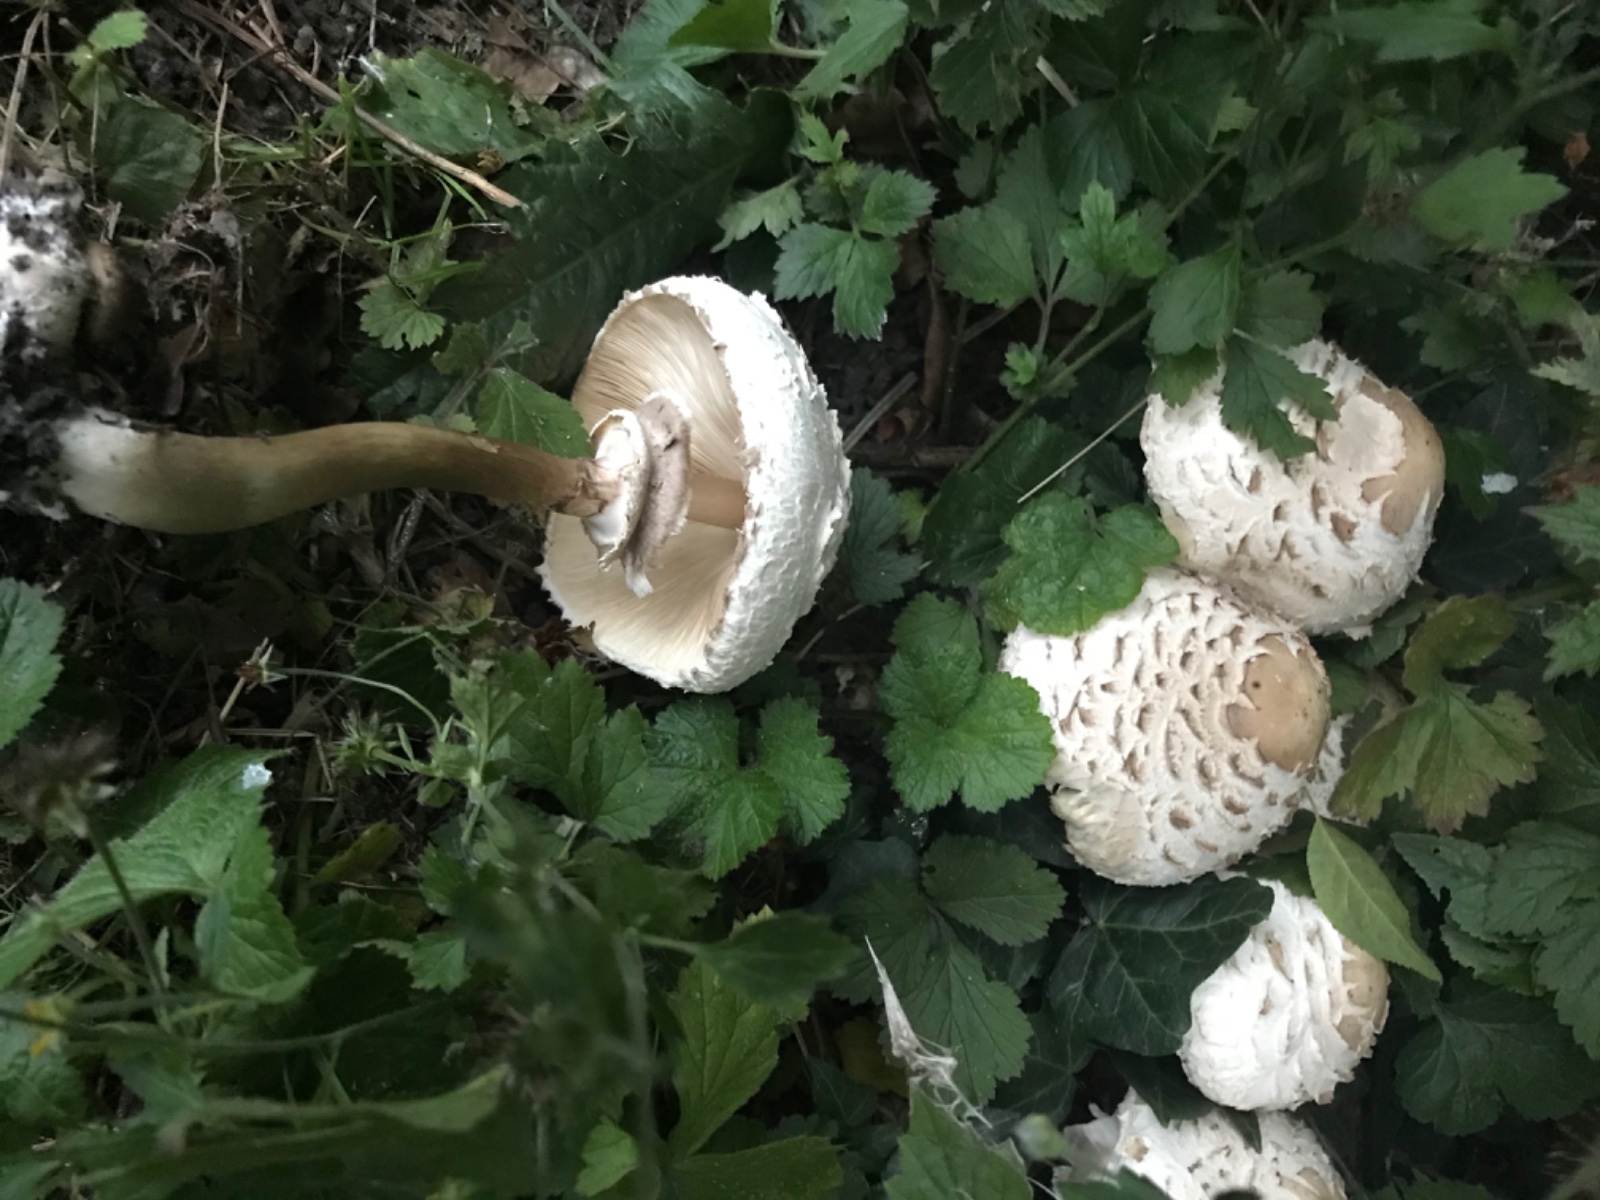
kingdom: Fungi
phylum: Basidiomycota
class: Agaricomycetes
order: Agaricales
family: Agaricaceae
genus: Chlorophyllum
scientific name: Chlorophyllum rhacodes
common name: ægte rabarberhat
